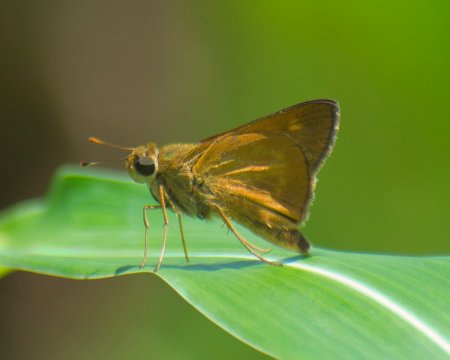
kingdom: Animalia
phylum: Arthropoda
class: Insecta
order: Lepidoptera
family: Hesperiidae
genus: Mellana
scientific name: Mellana eulogius
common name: Common Mellana
